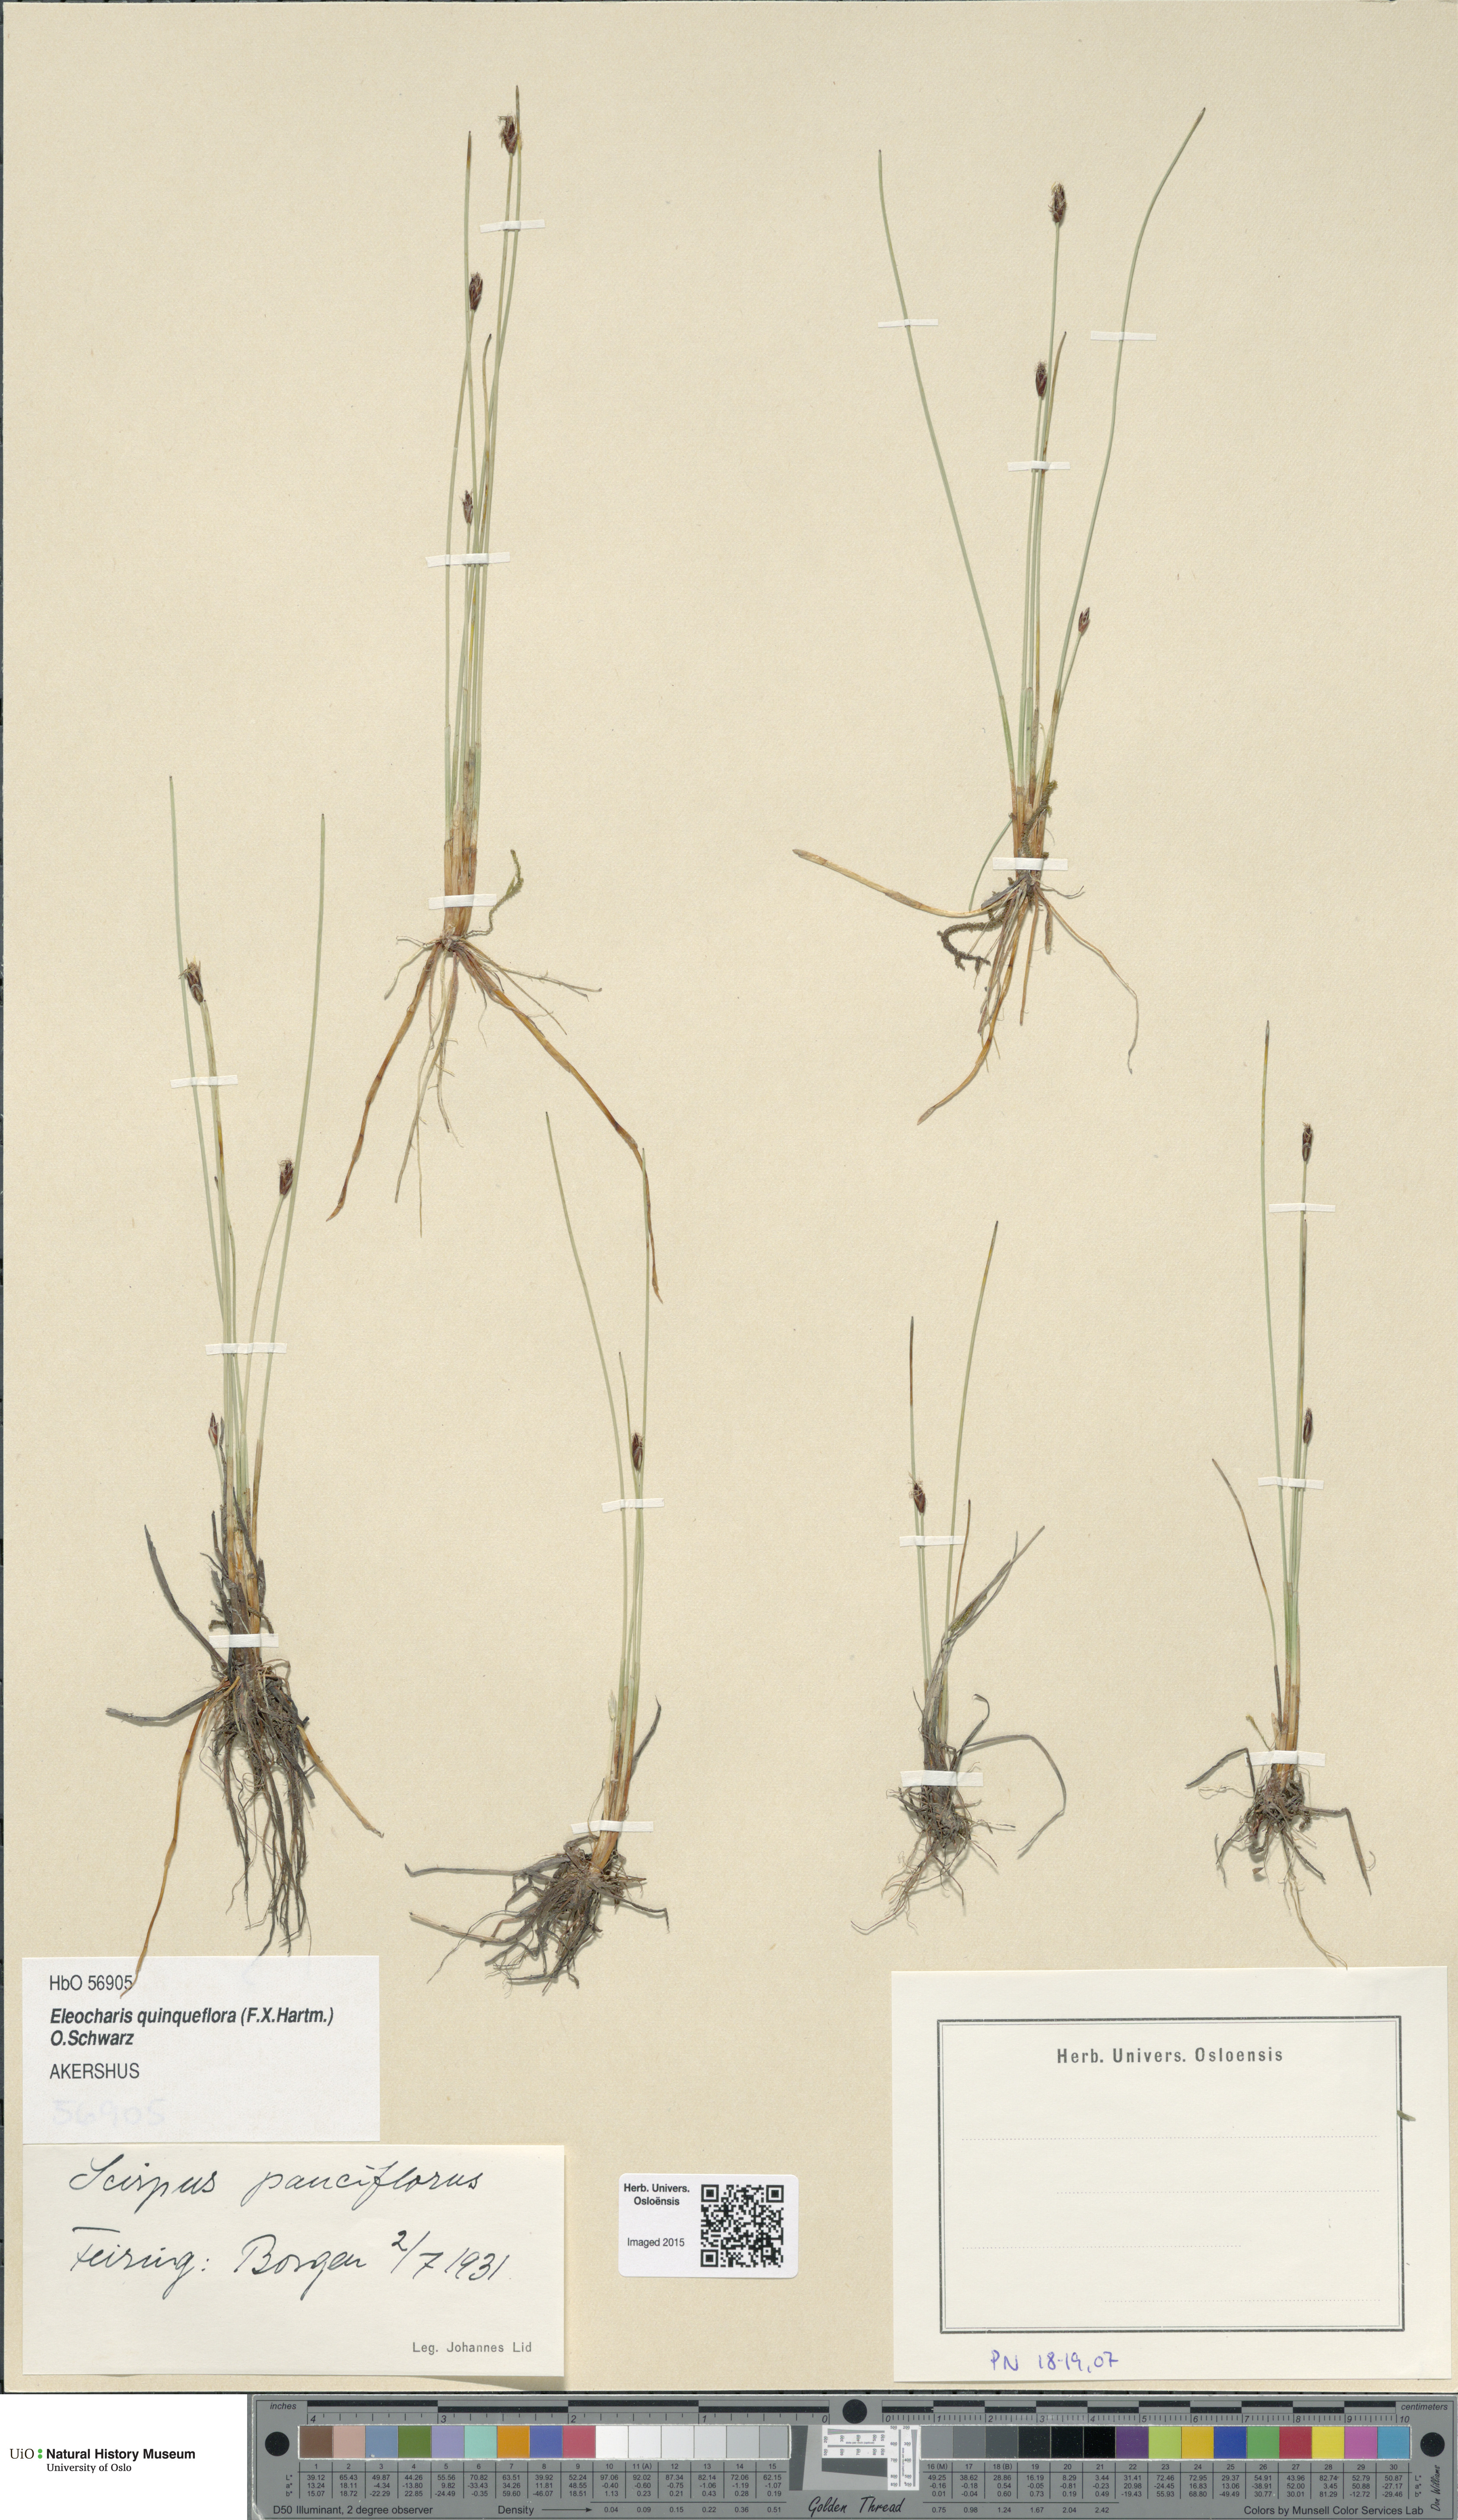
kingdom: Plantae
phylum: Tracheophyta
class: Liliopsida
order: Poales
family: Cyperaceae
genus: Eleocharis
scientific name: Eleocharis quinqueflora
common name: Few-flowered spike-rush
